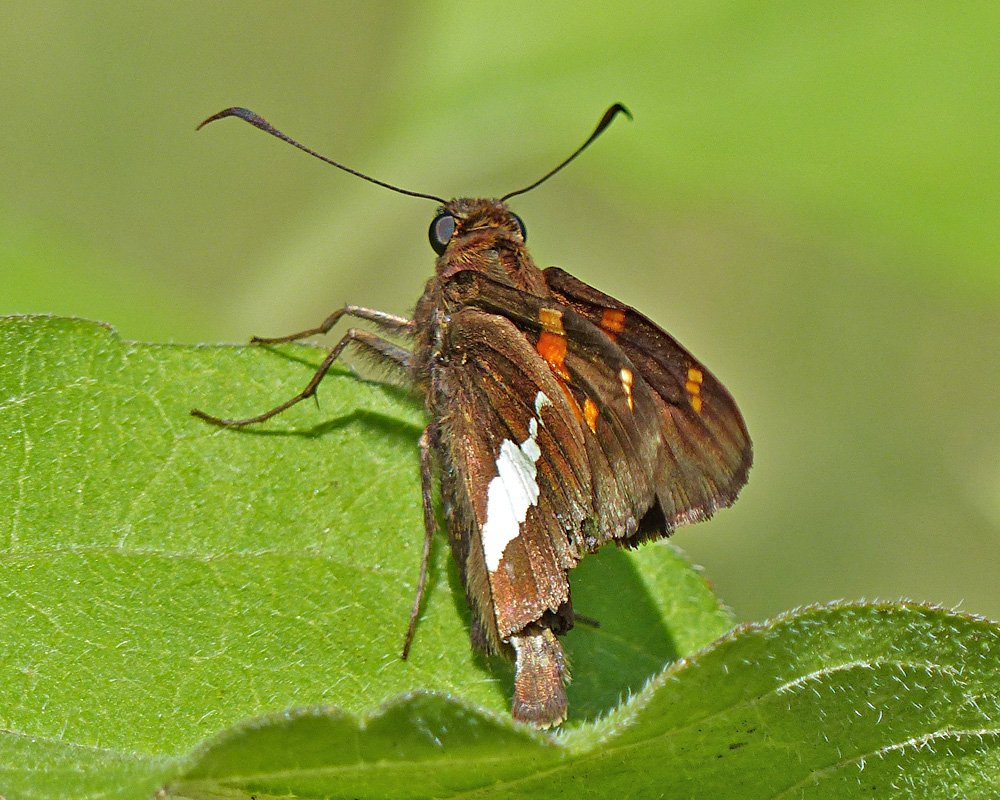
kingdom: Animalia
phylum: Arthropoda
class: Insecta
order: Lepidoptera
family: Hesperiidae
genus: Epargyreus
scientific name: Epargyreus clarus
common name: Silver-spotted Skipper
